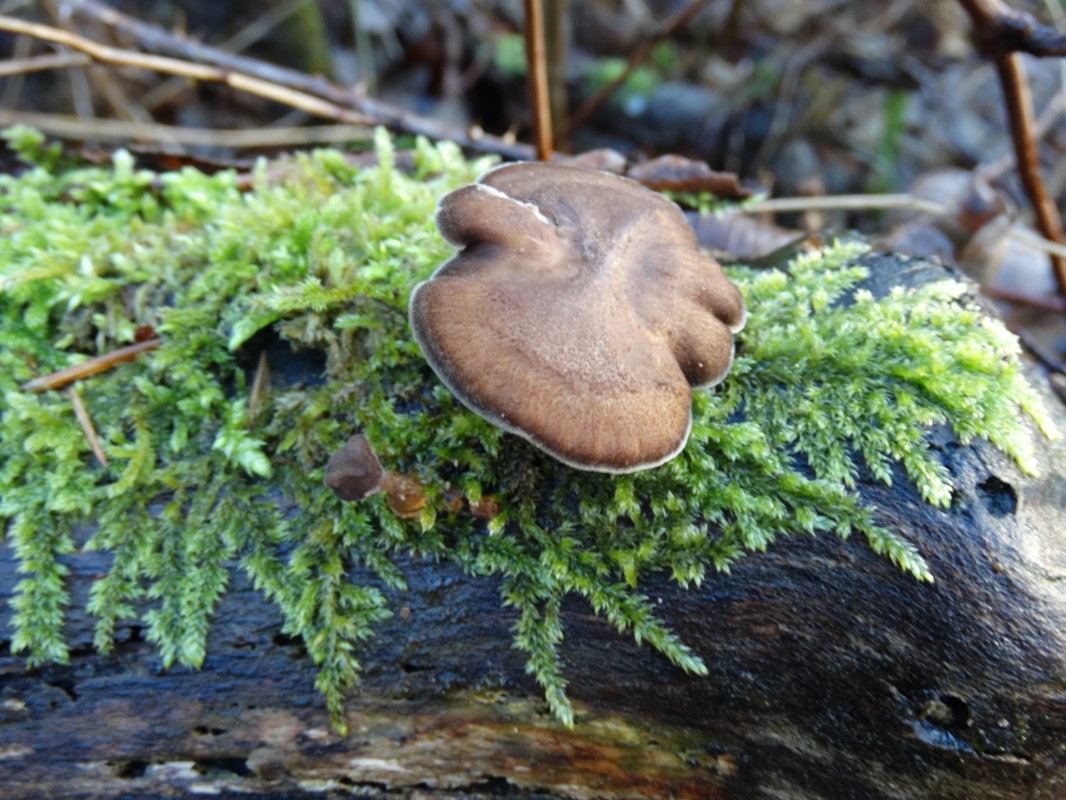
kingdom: Fungi
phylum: Basidiomycota
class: Agaricomycetes
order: Polyporales
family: Polyporaceae
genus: Lentinus
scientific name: Lentinus brumalis
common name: vinter-stilkporesvamp
